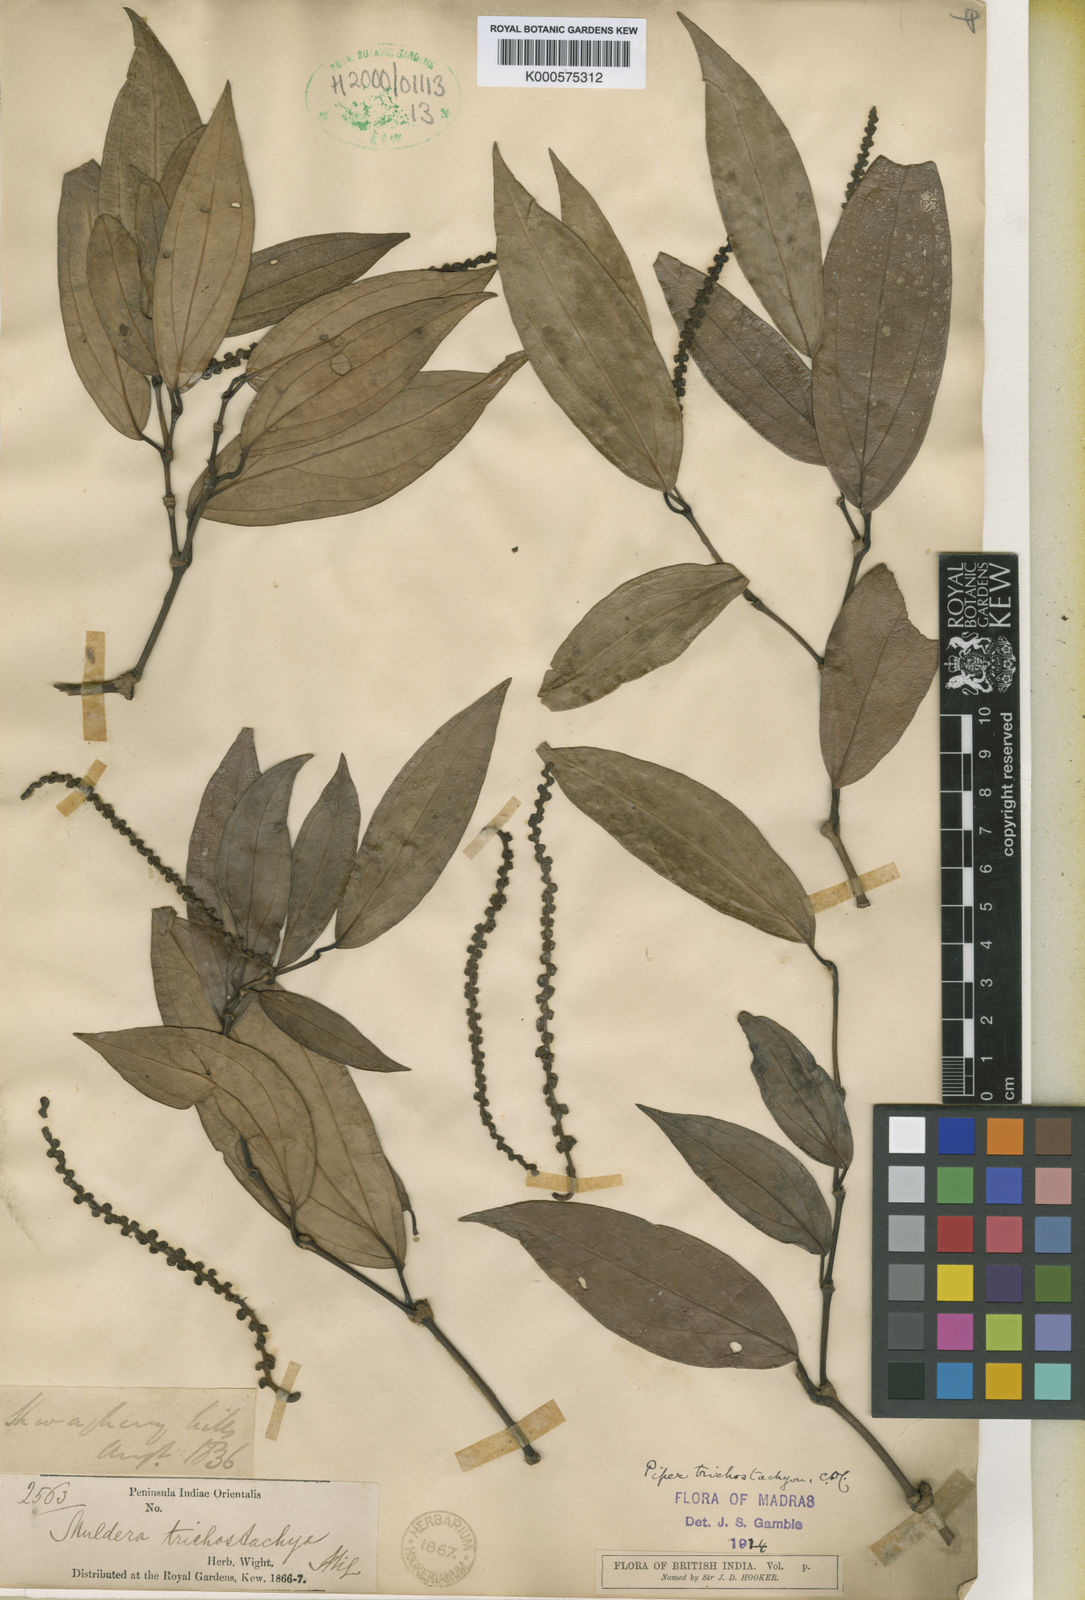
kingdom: Plantae
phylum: Tracheophyta
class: Magnoliopsida
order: Piperales
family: Piperaceae
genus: Piper
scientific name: Piper trichostachyon
